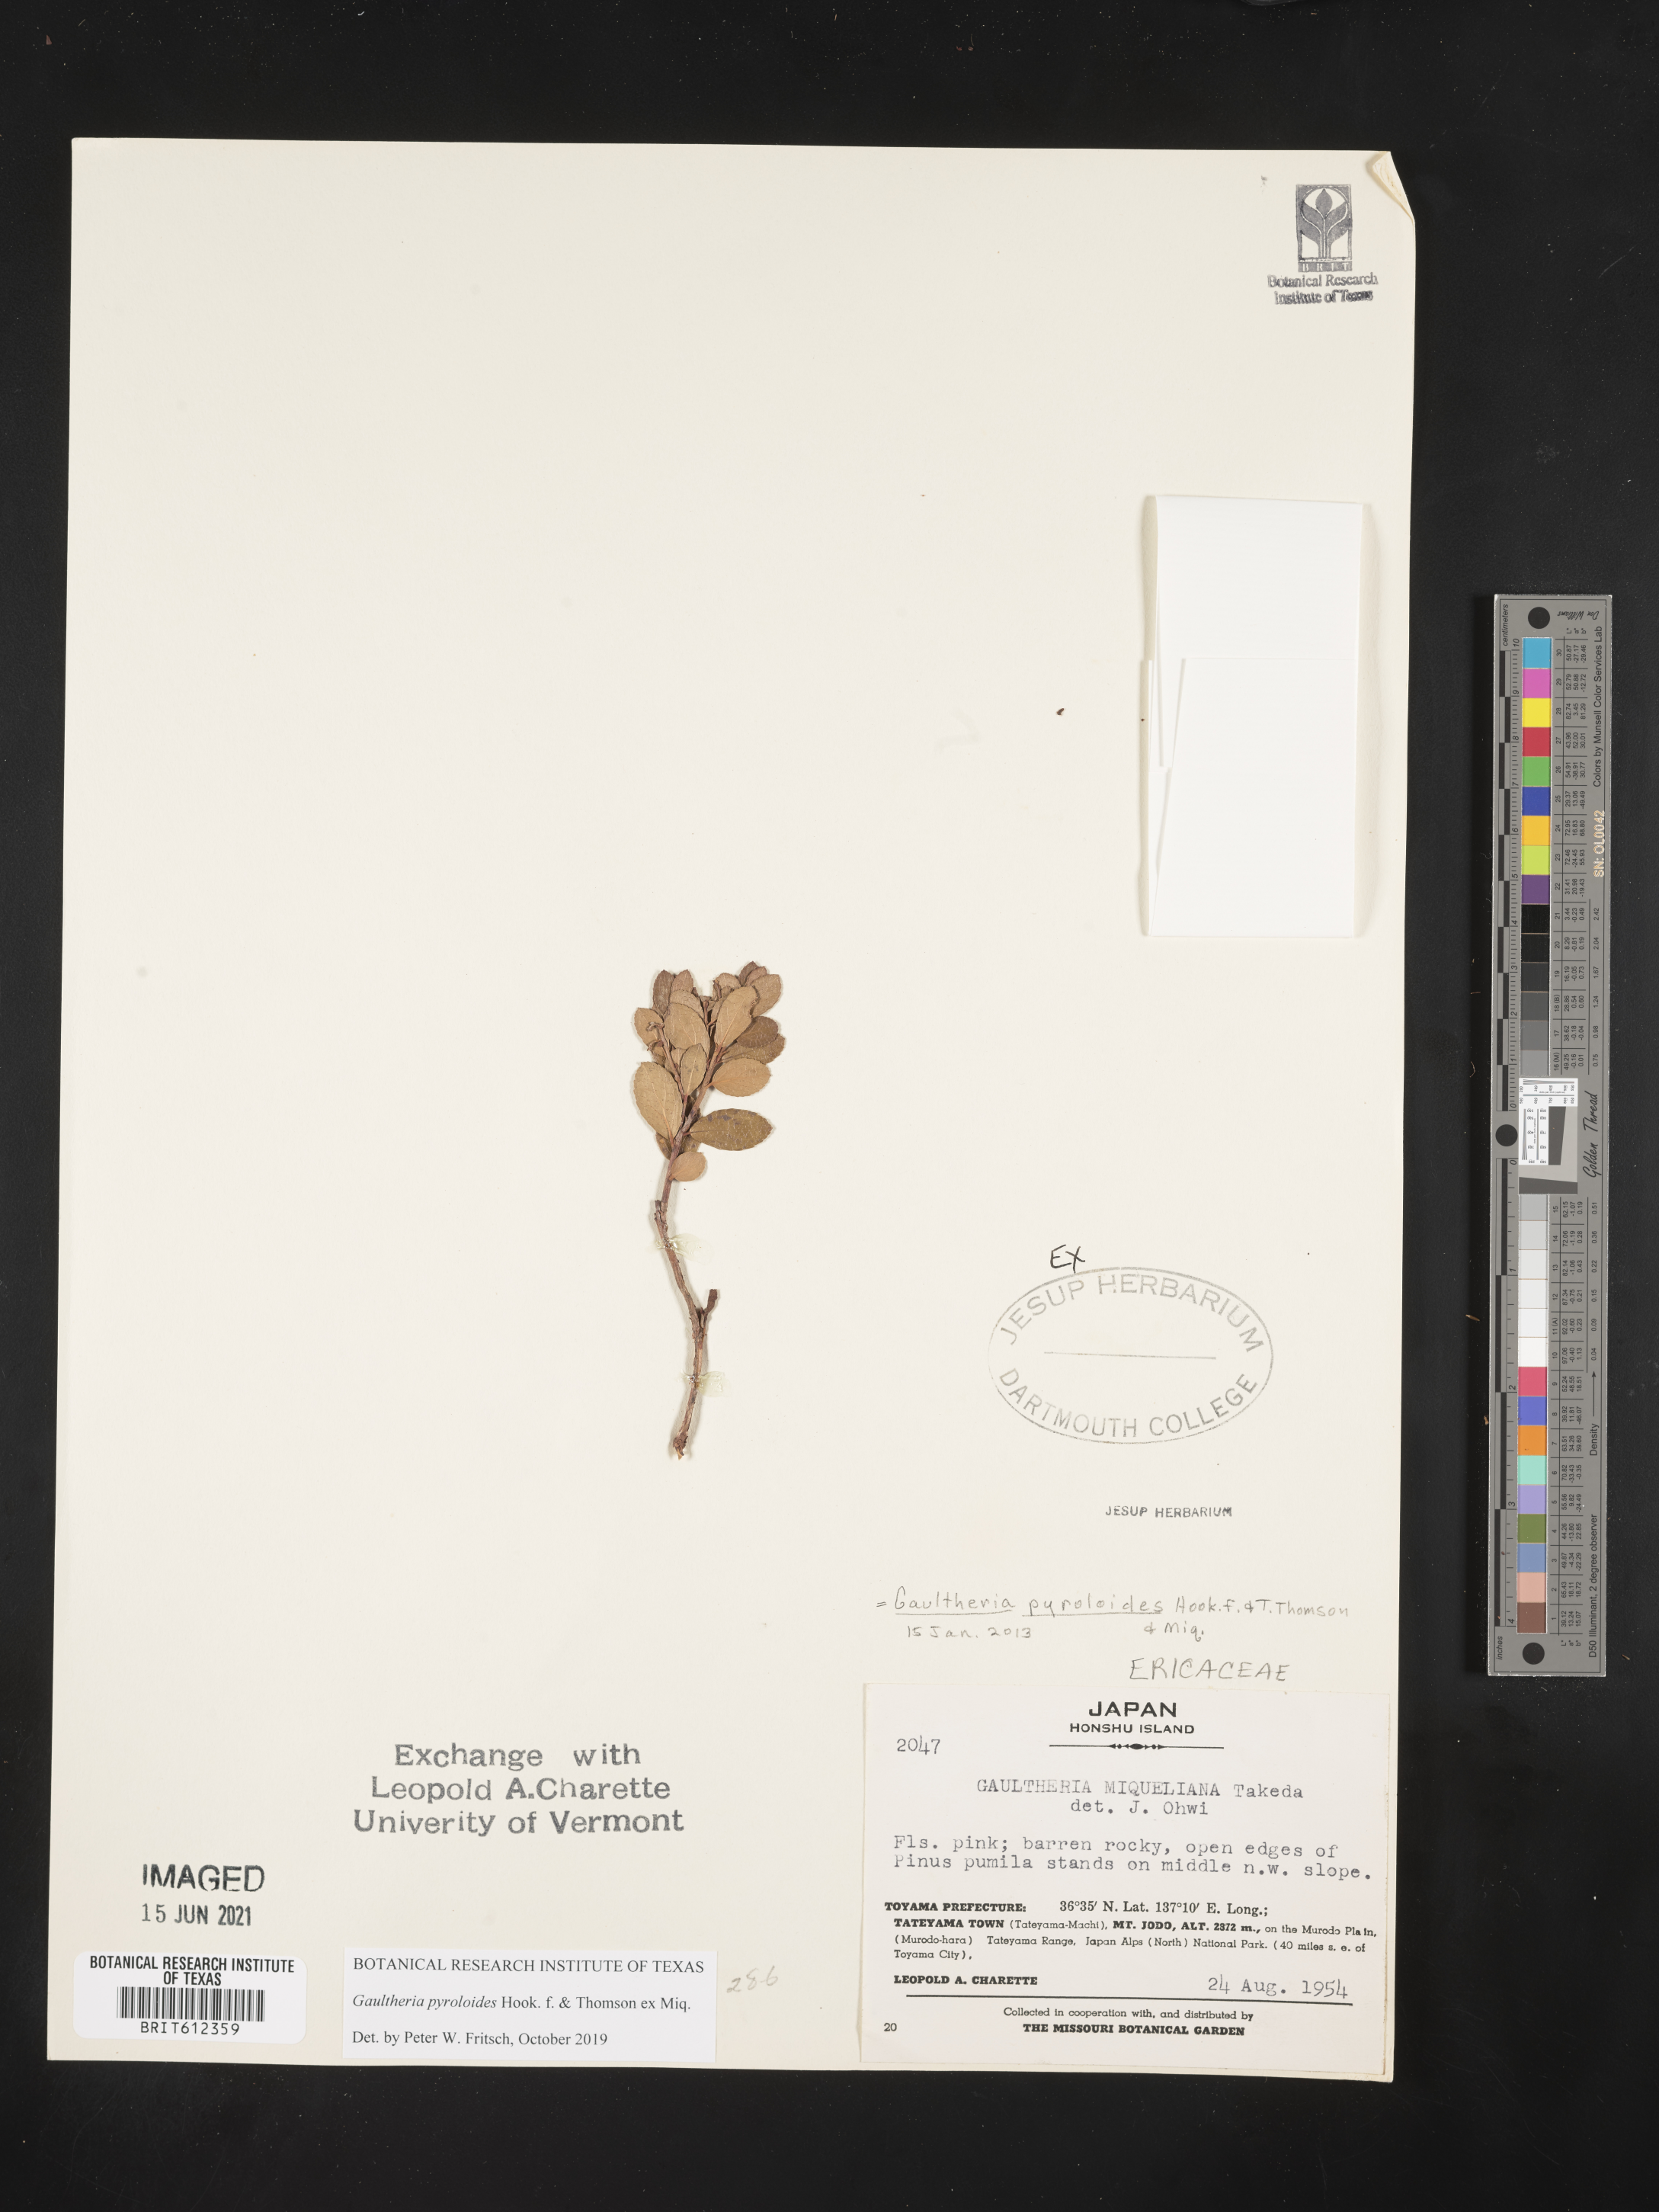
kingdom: Plantae
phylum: Tracheophyta
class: Magnoliopsida
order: Ericales
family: Ericaceae
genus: Gaultheria
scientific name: Gaultheria pyroloides
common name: Japanese wintergreen
